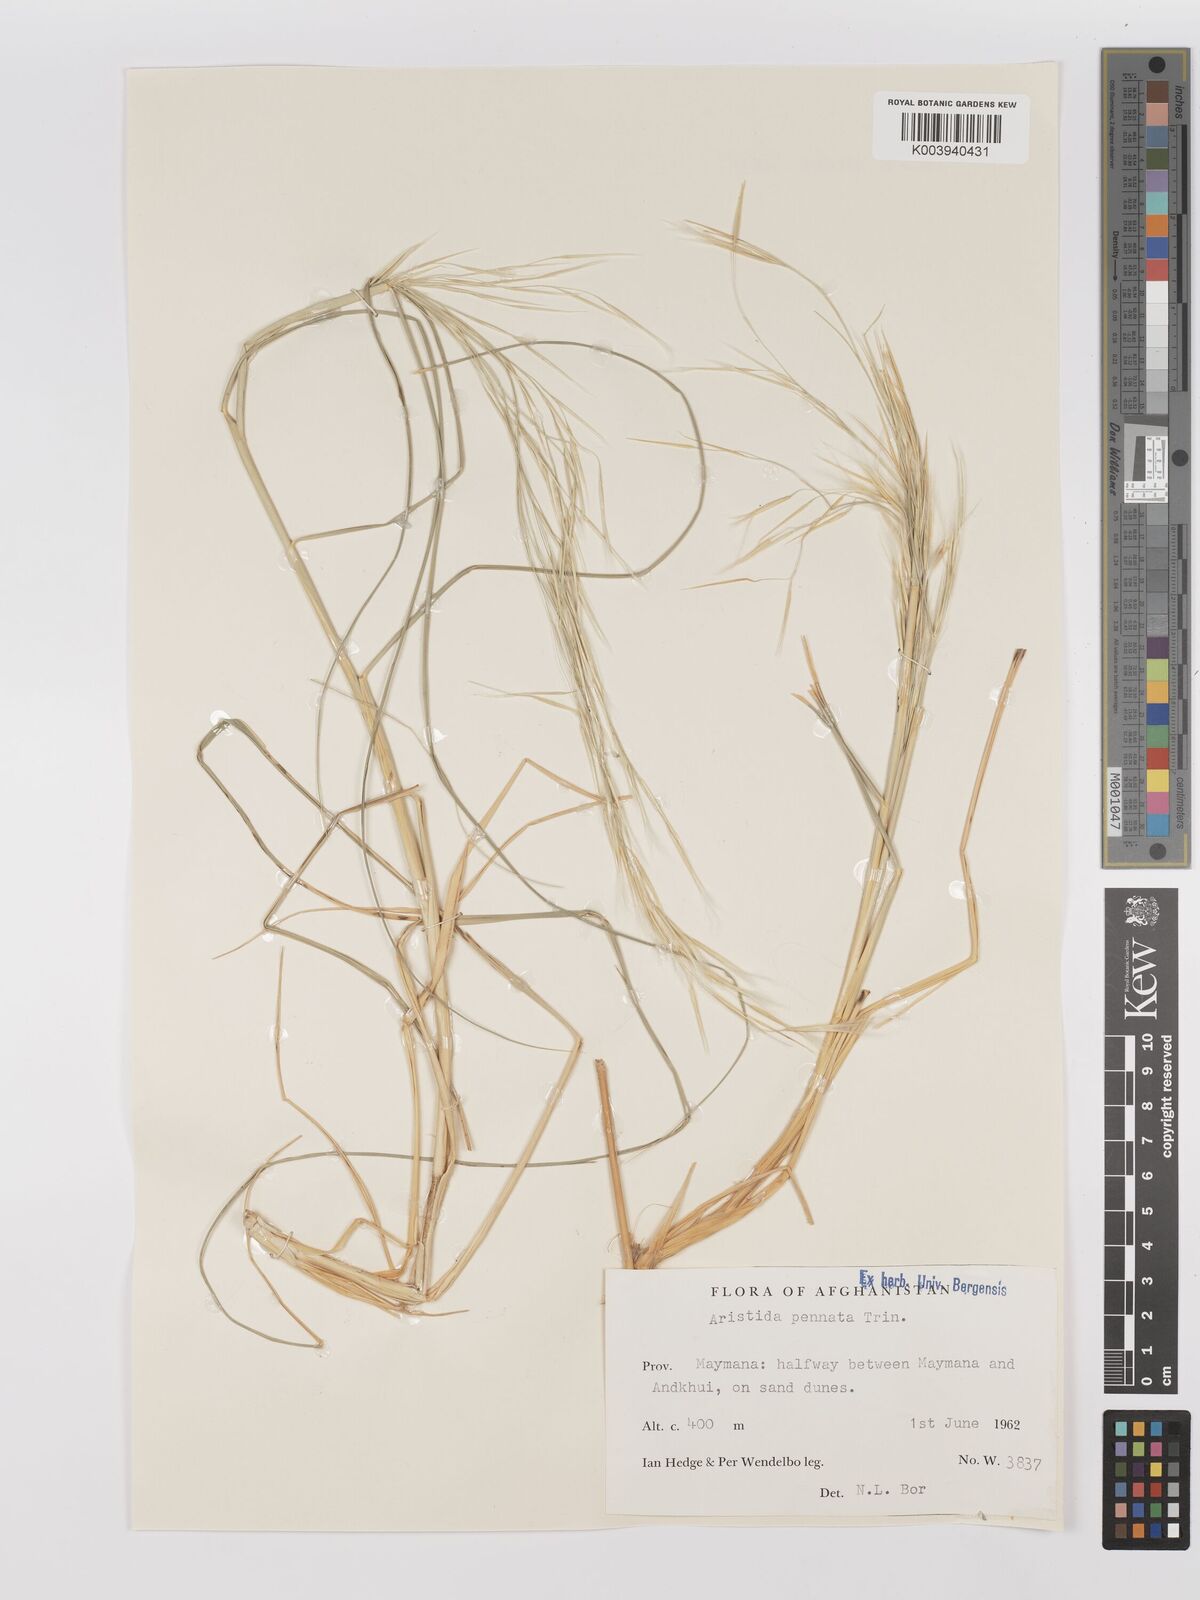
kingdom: Plantae
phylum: Tracheophyta
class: Liliopsida
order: Poales
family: Poaceae
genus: Stipagrostis
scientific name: Stipagrostis pennata
